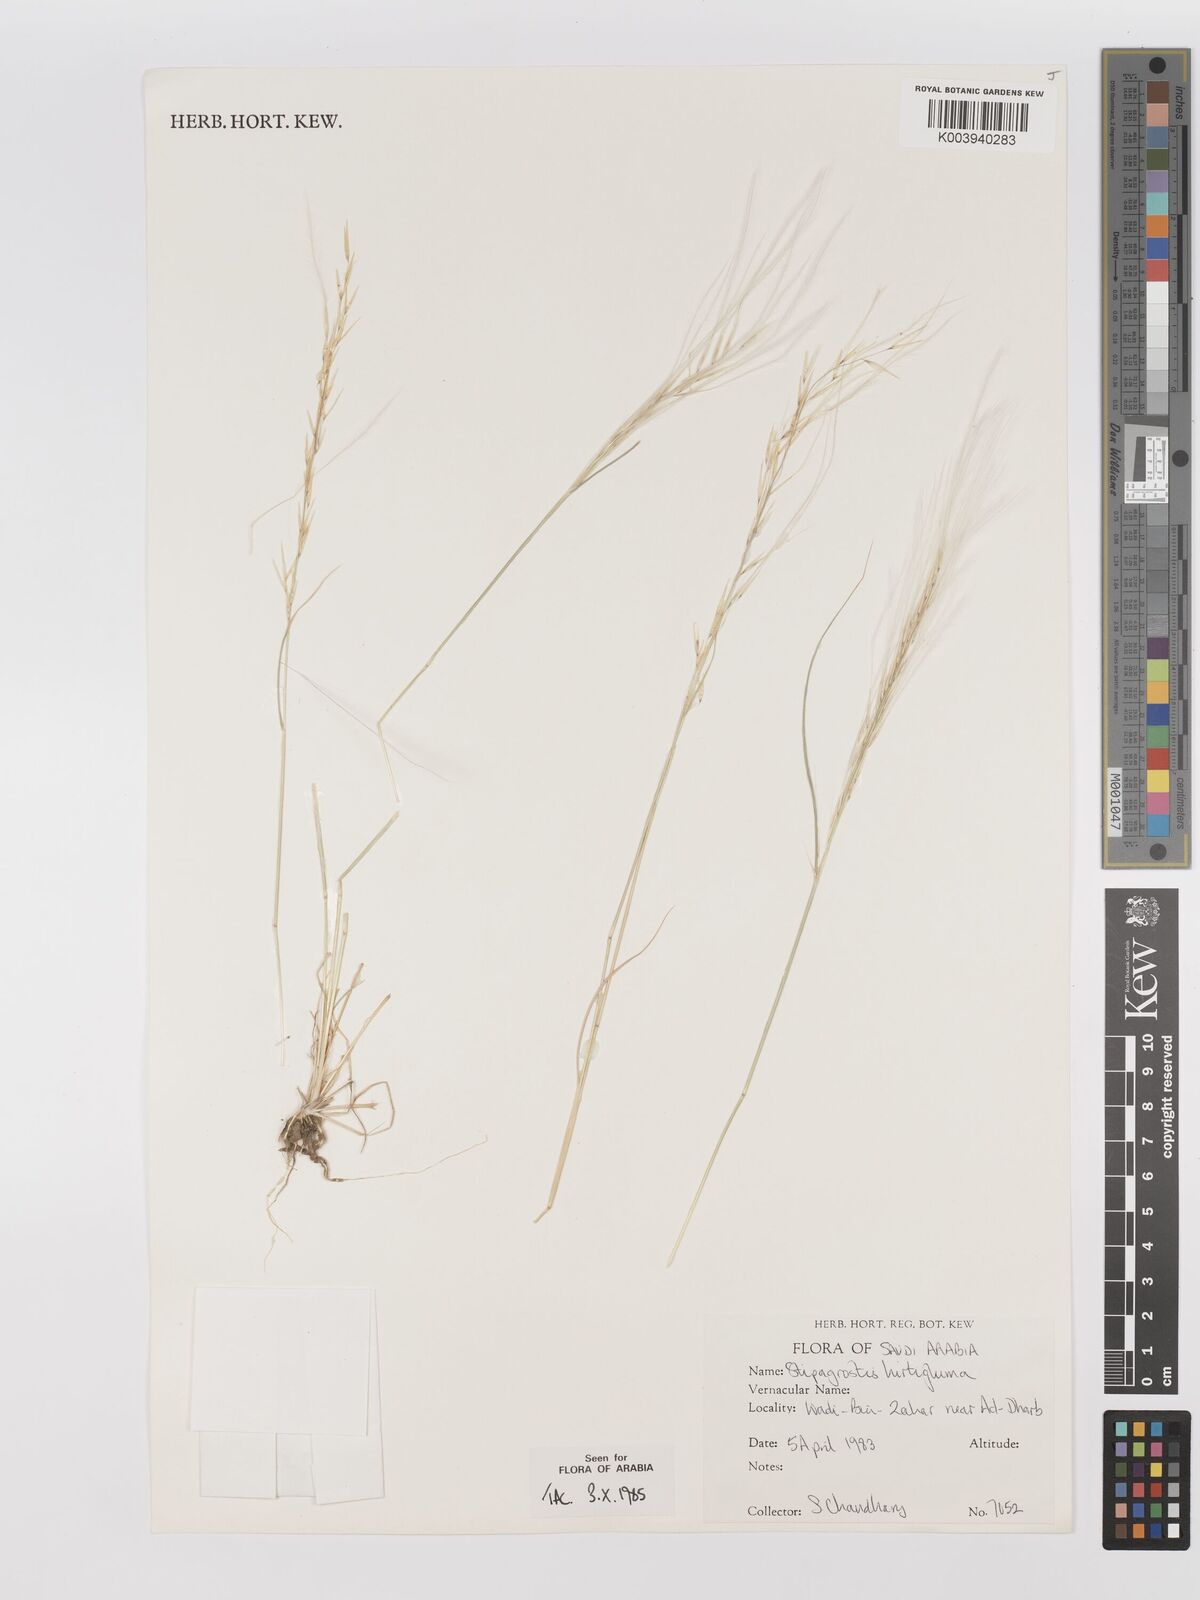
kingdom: Plantae
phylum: Tracheophyta
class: Liliopsida
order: Poales
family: Poaceae
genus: Stipagrostis
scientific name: Stipagrostis hirtigluma
